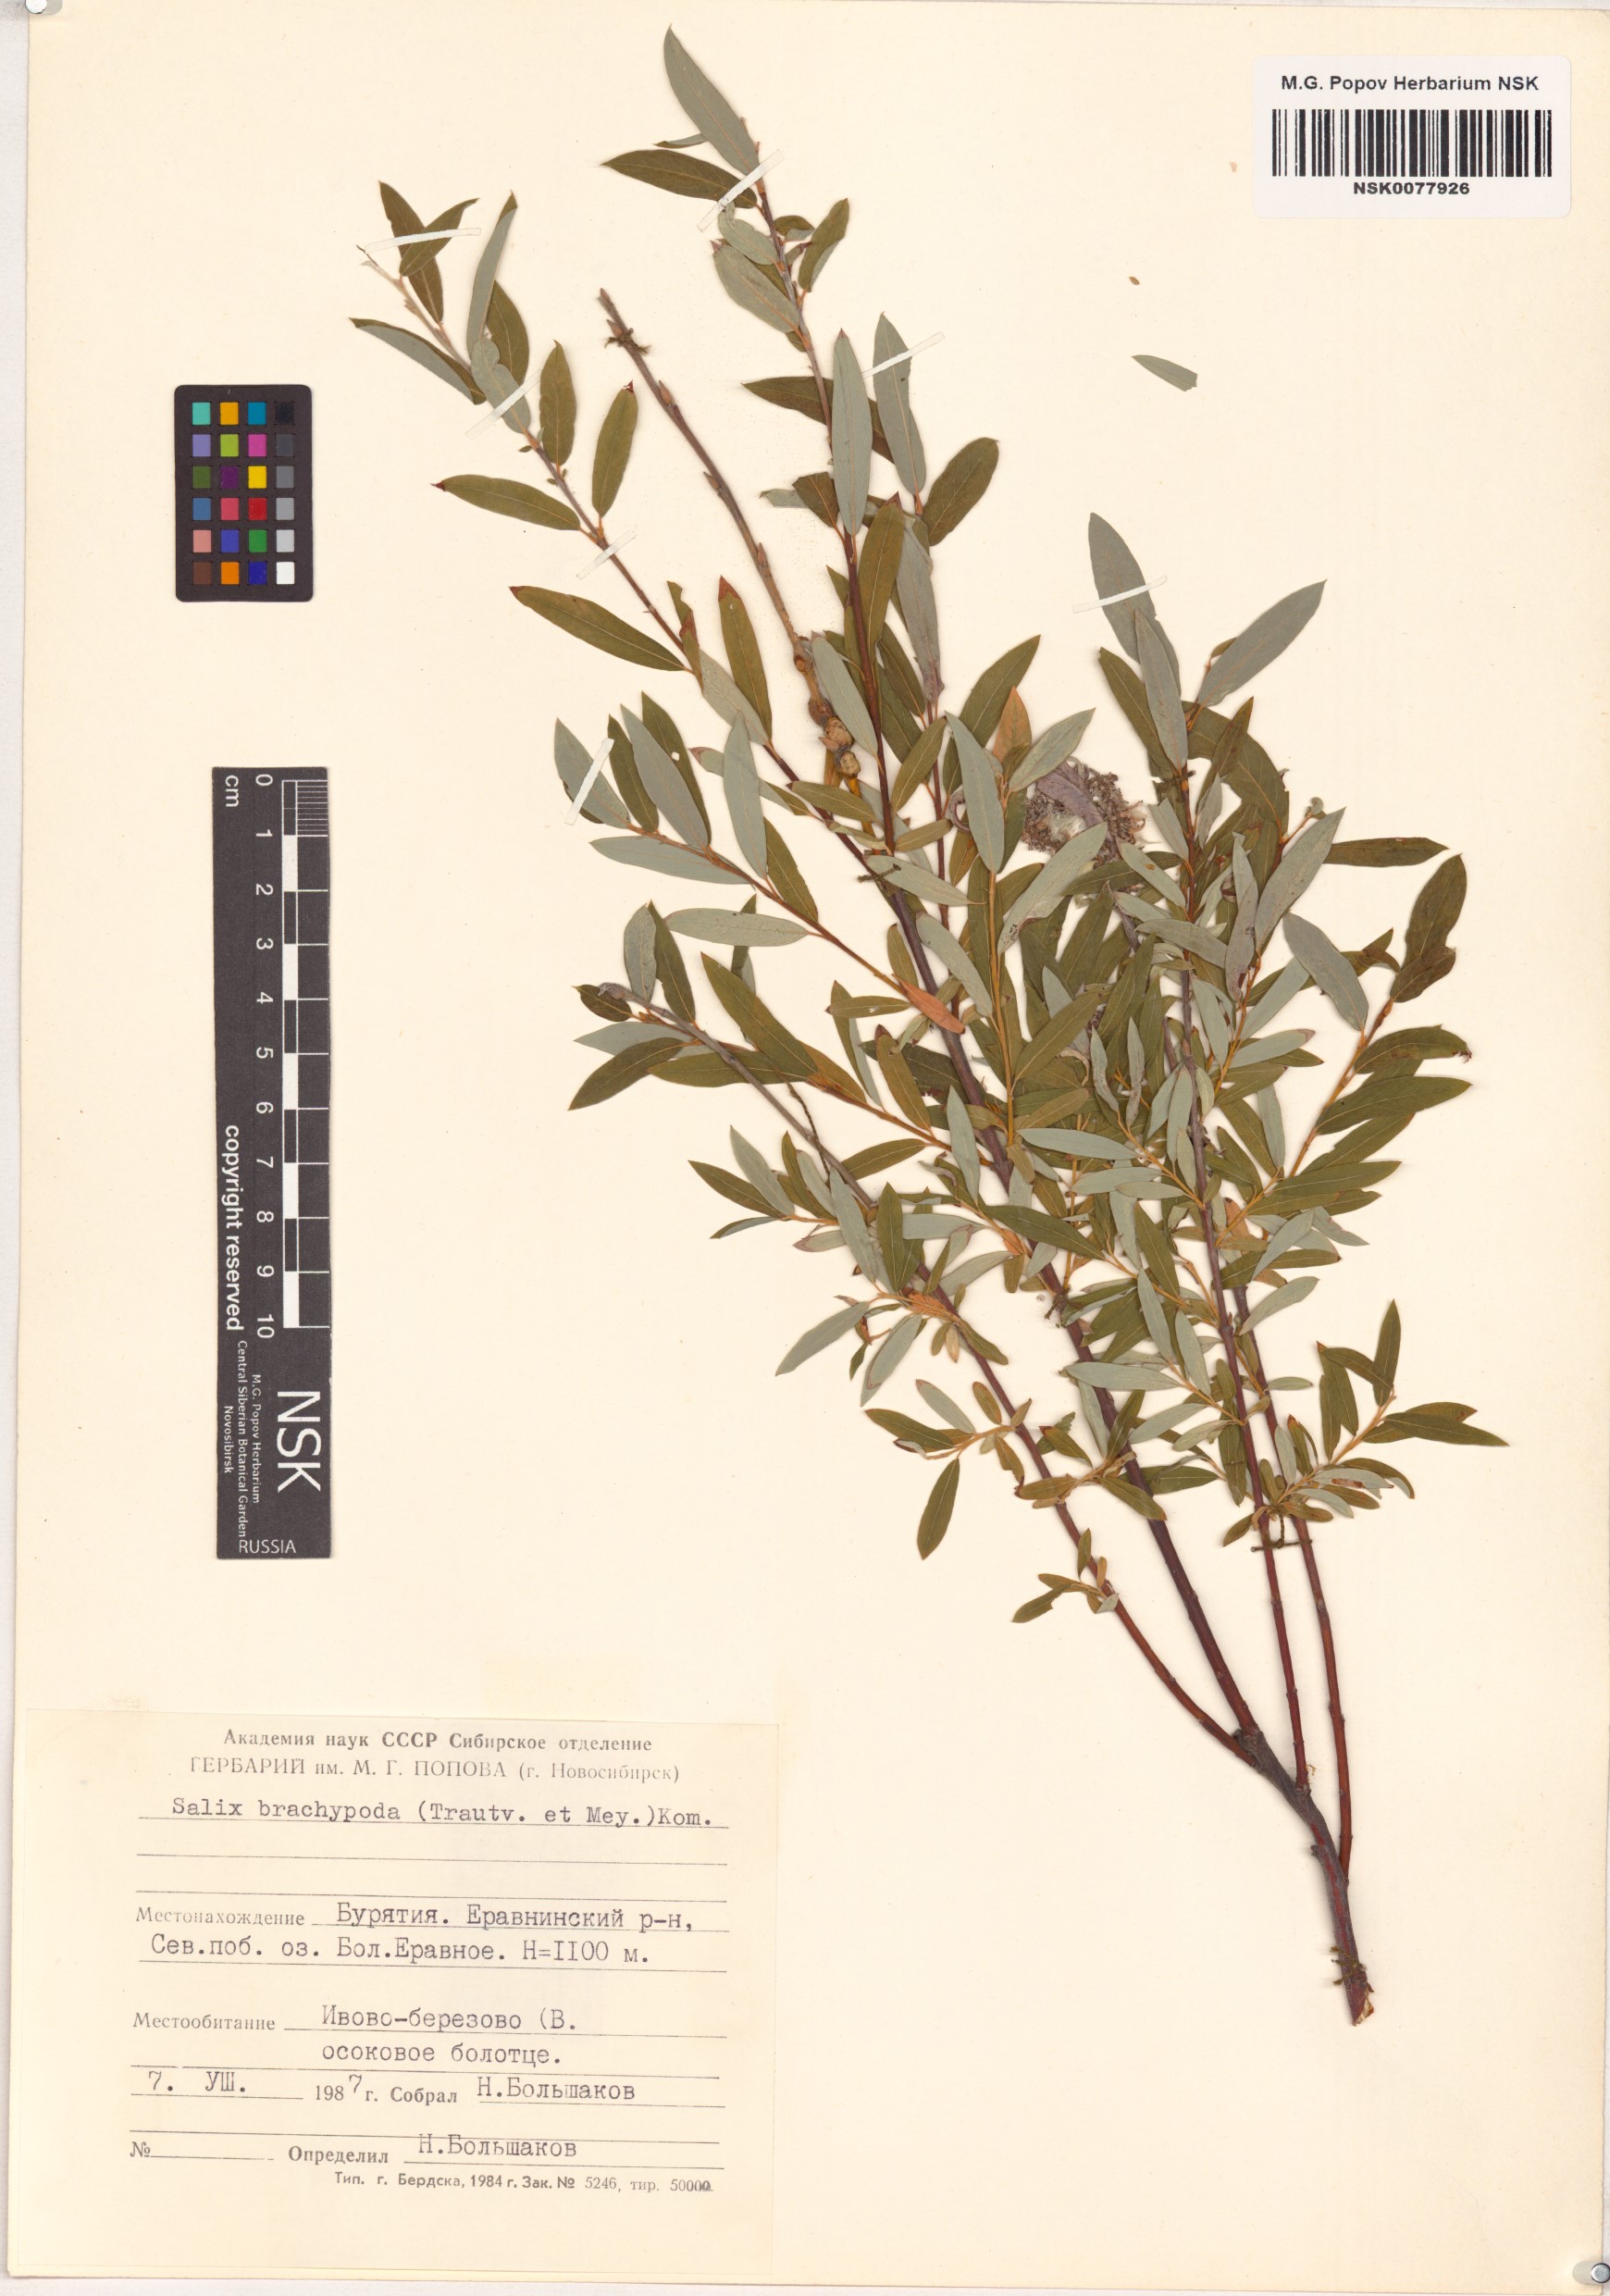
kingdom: Plantae
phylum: Tracheophyta
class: Magnoliopsida
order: Malpighiales
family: Salicaceae
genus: Salix
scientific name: Salix brachypoda
